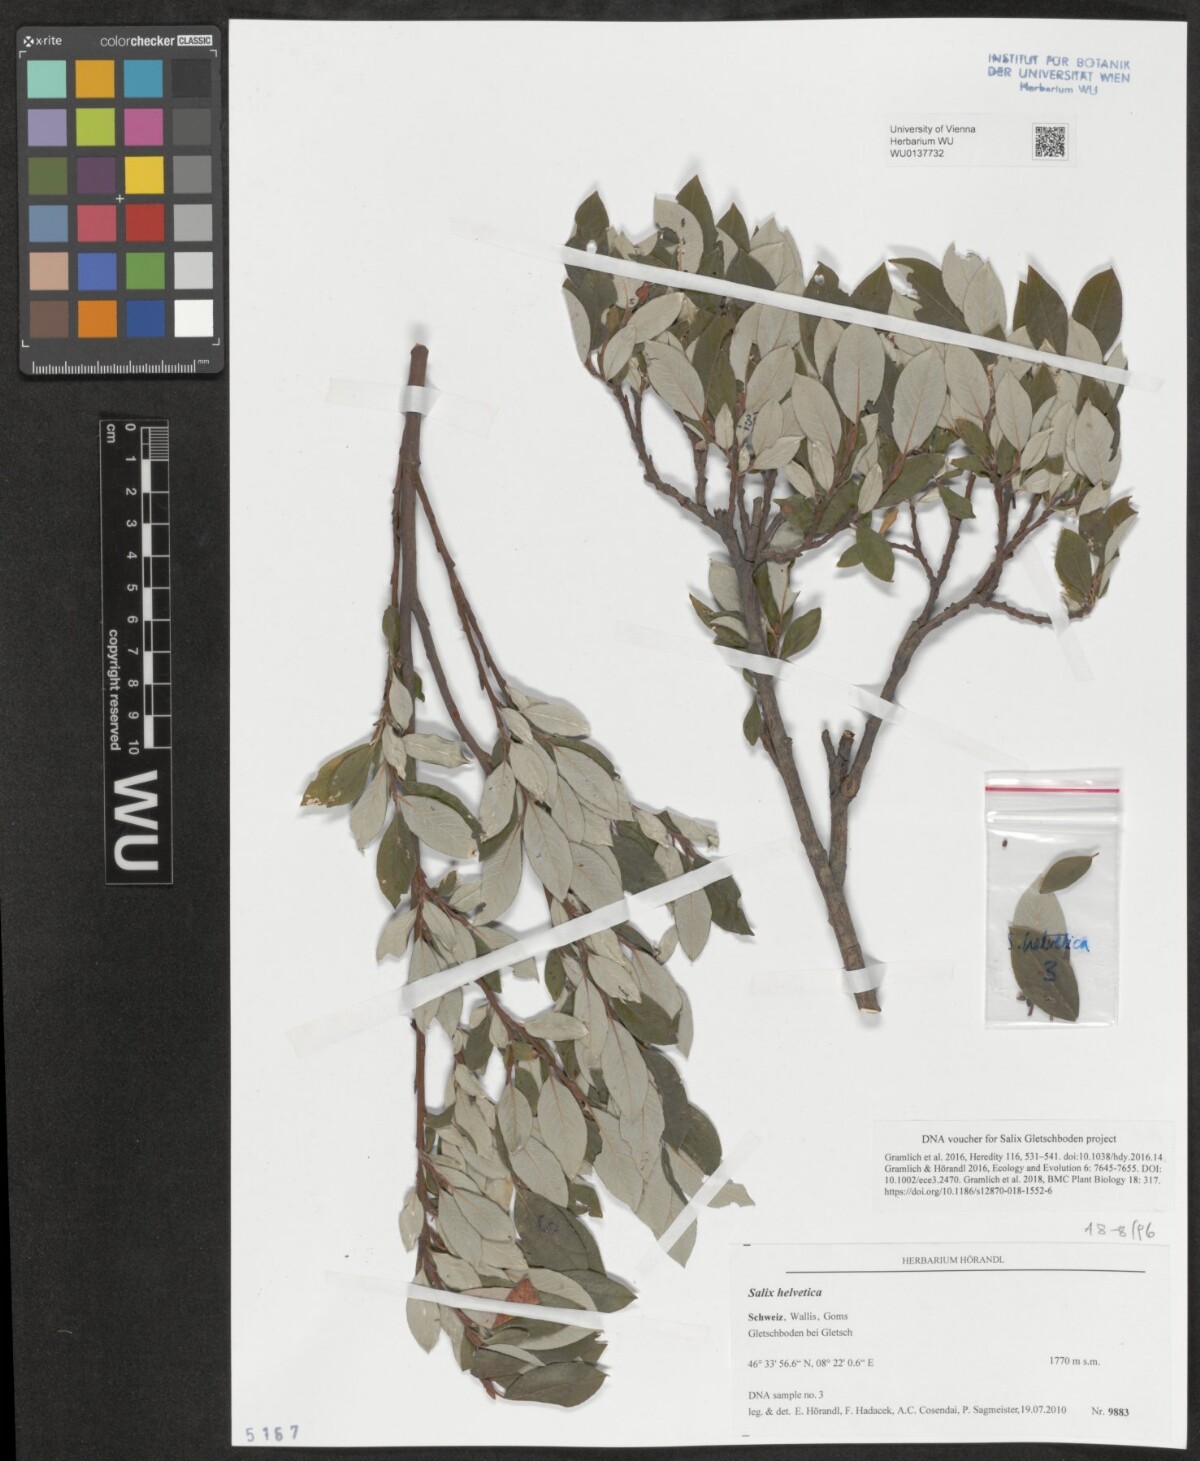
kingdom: Plantae
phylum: Tracheophyta
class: Magnoliopsida
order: Malpighiales
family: Salicaceae
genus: Salix
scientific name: Salix helvetica
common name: Swiss willow
